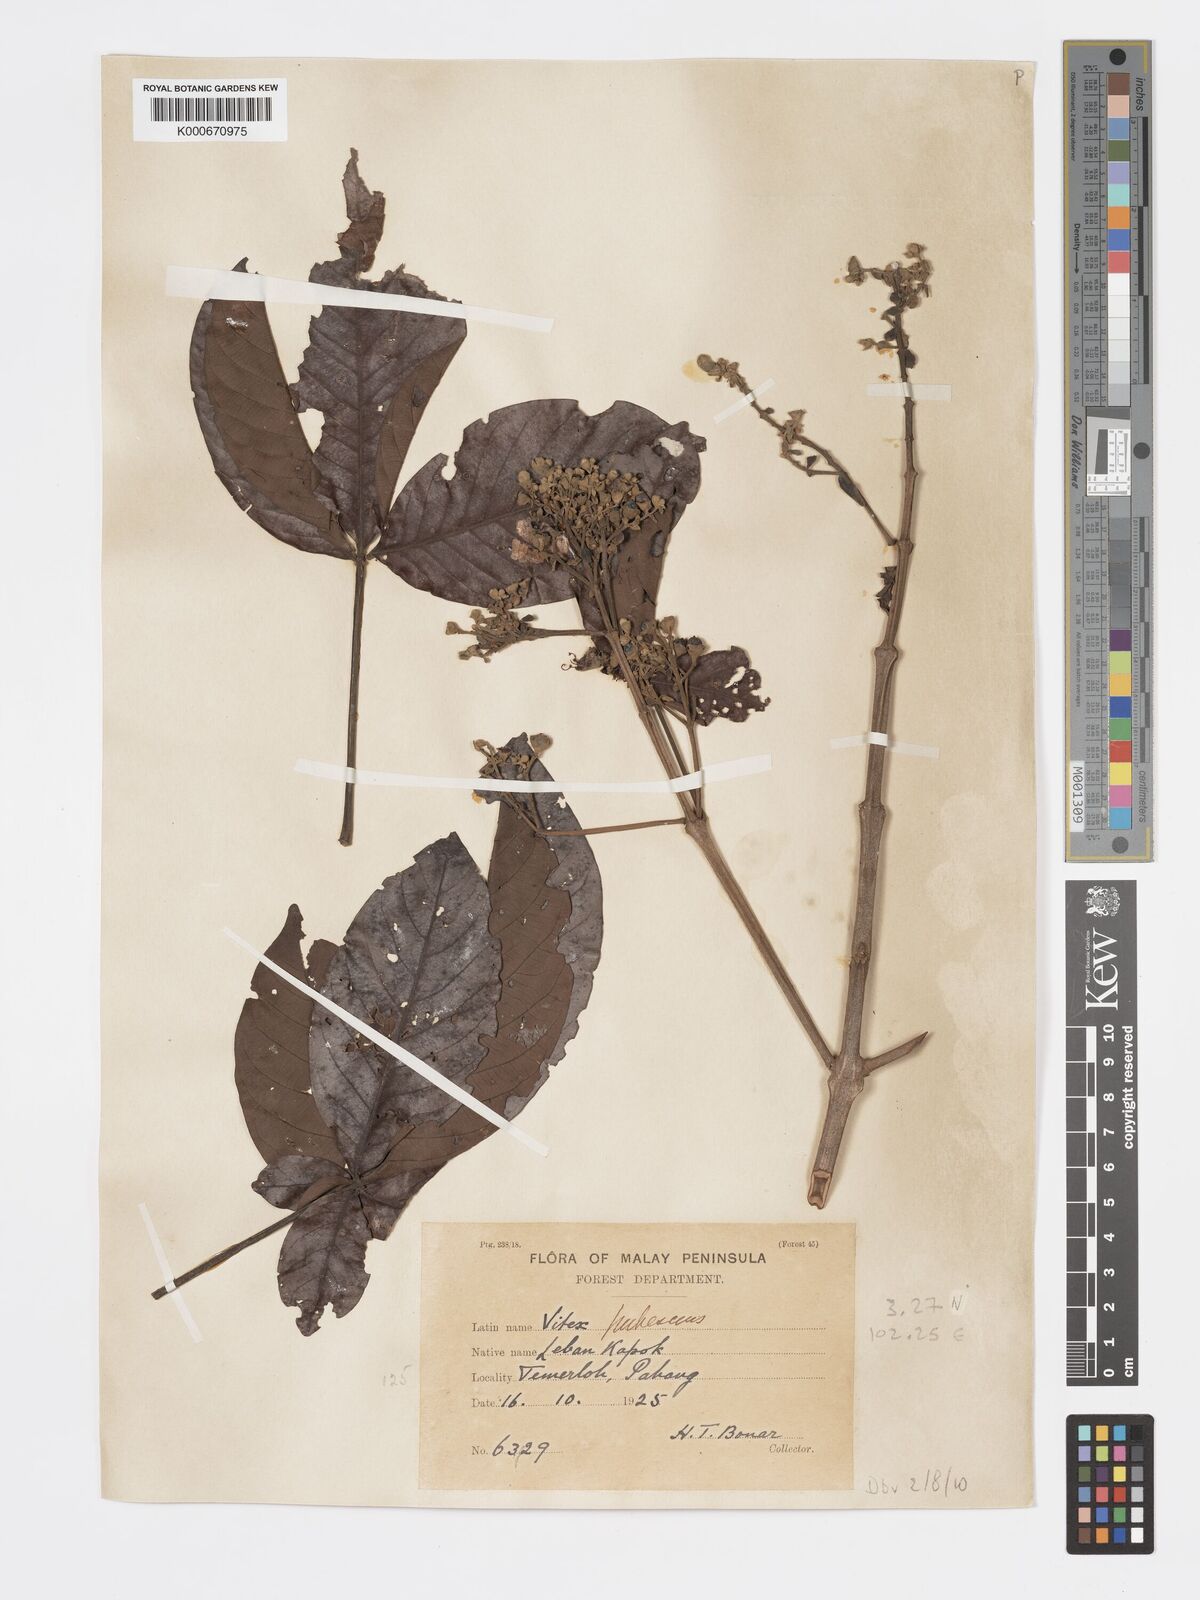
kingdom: Plantae
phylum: Tracheophyta
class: Magnoliopsida
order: Lamiales
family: Lamiaceae
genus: Vitex
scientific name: Vitex pinnata
